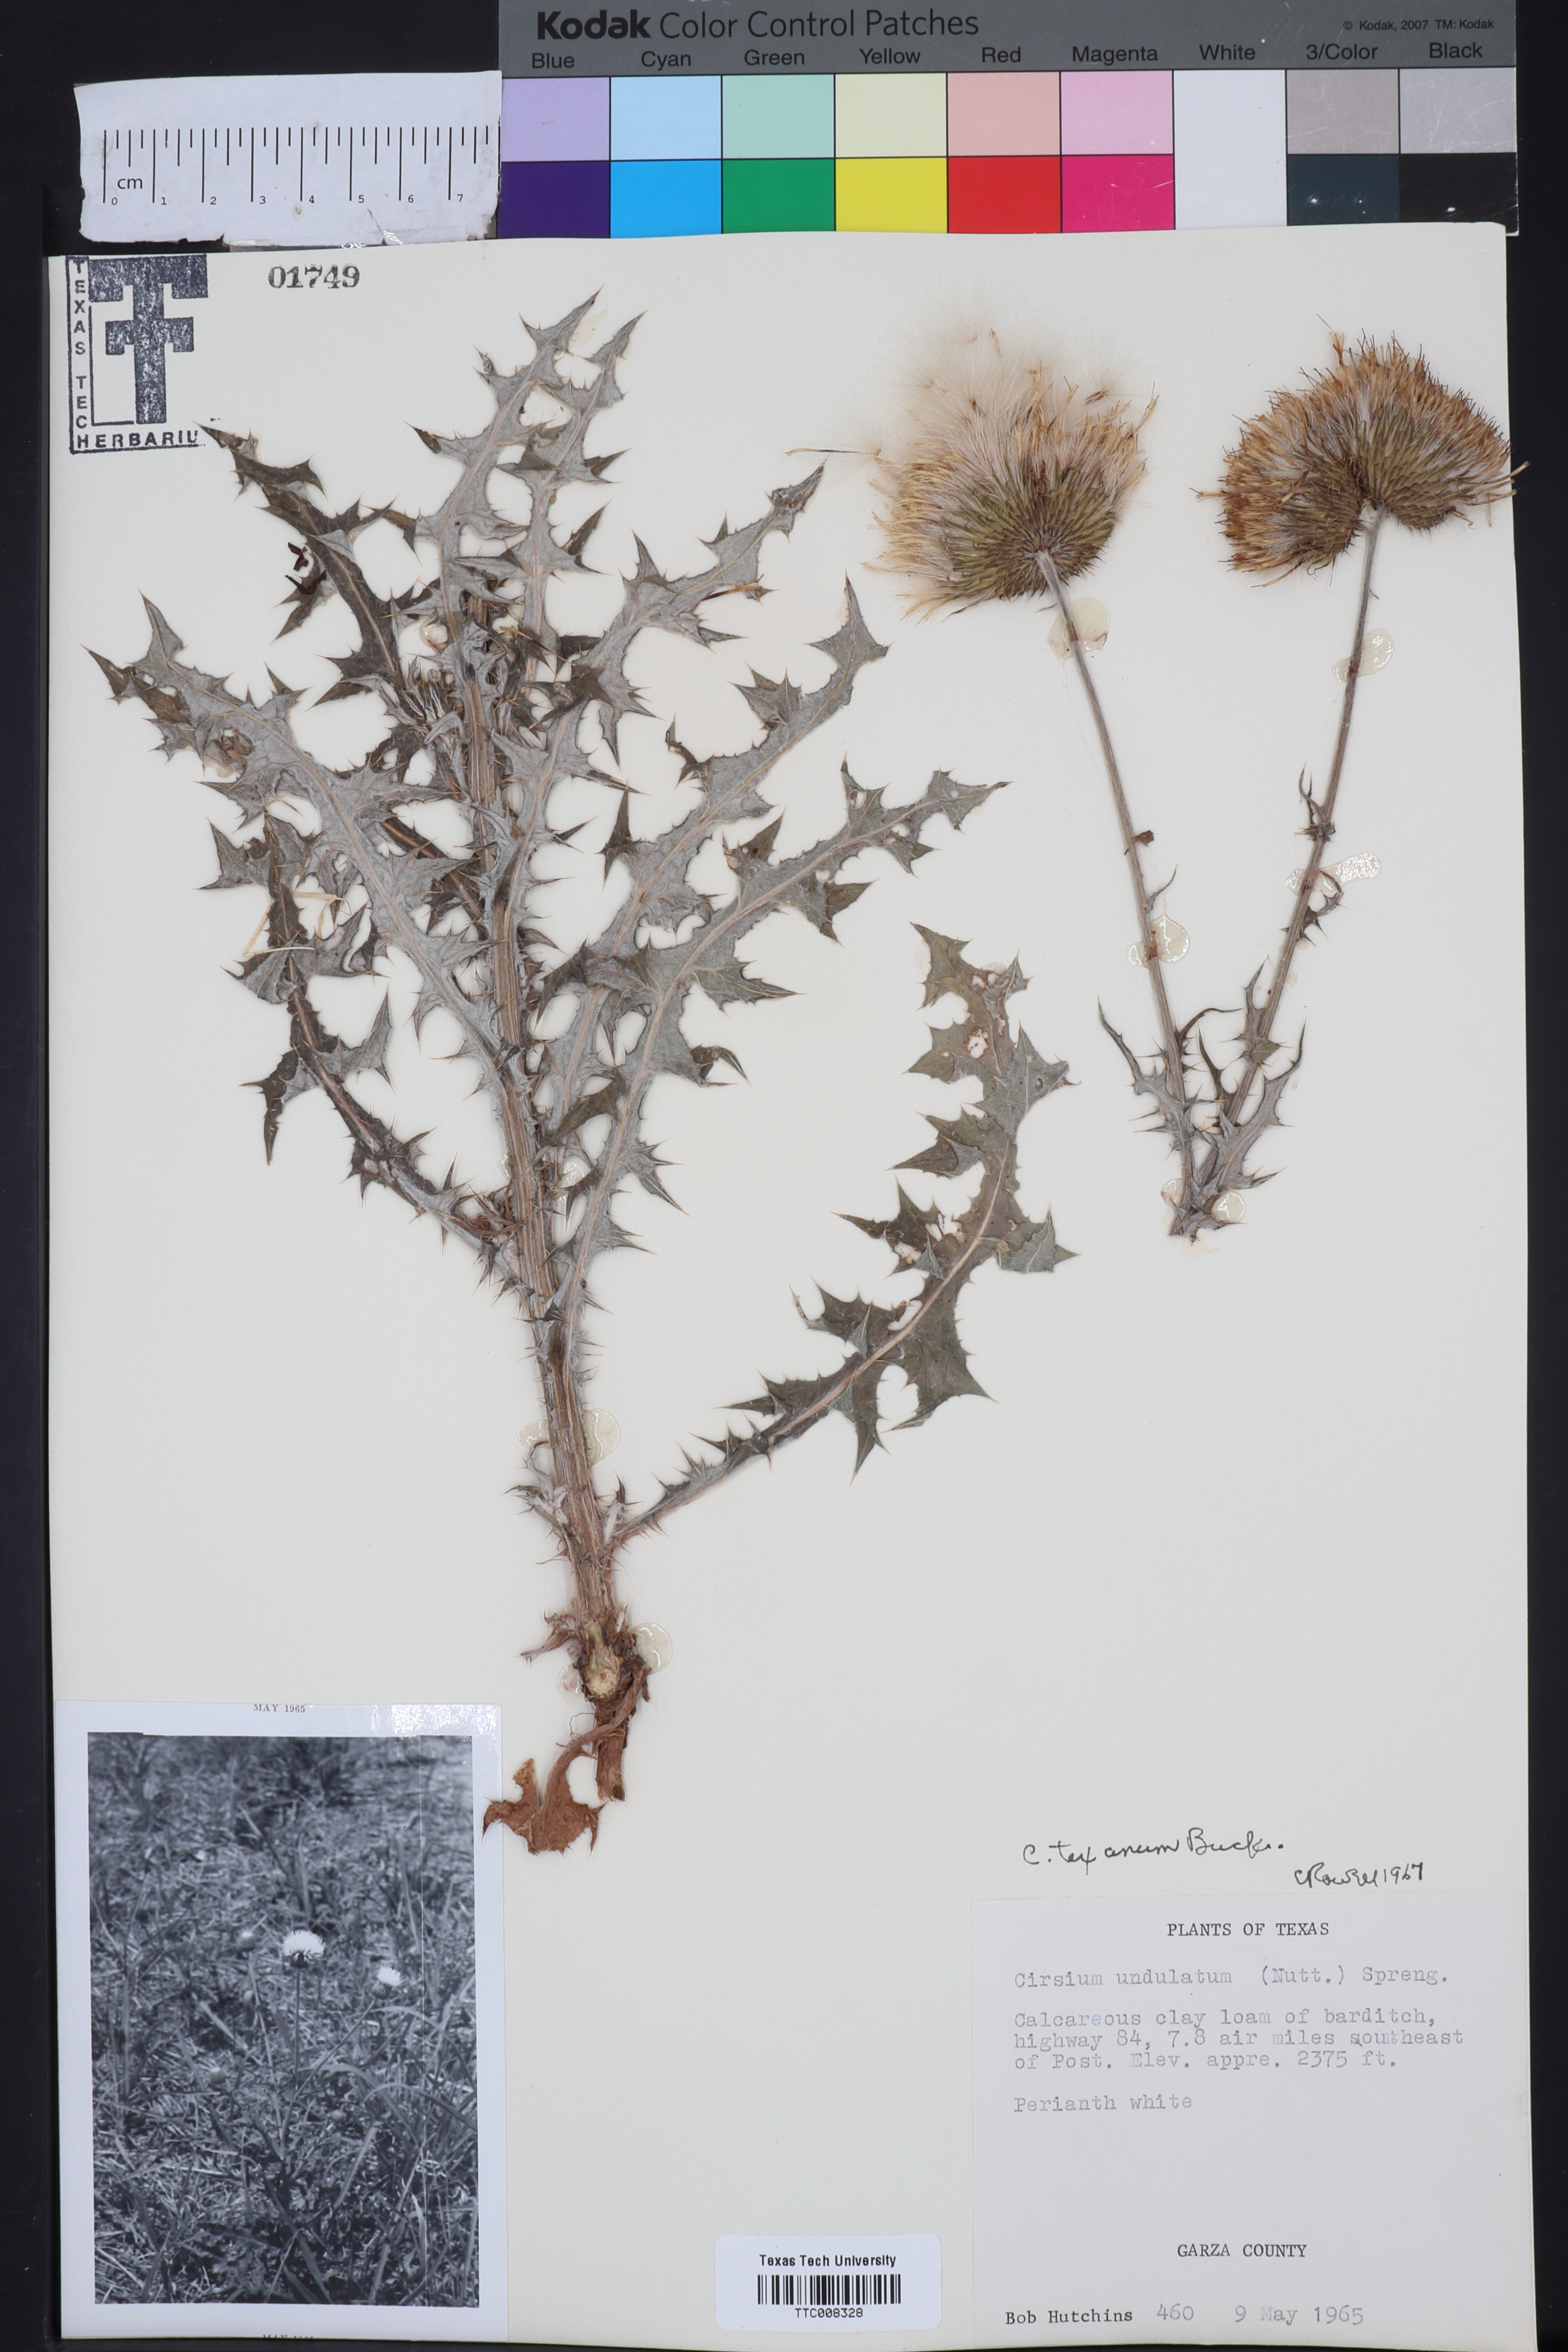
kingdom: Plantae
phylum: Tracheophyta
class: Magnoliopsida
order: Asterales
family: Asteraceae
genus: Cirsium
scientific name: Cirsium texanum
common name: Texas purple thistle
